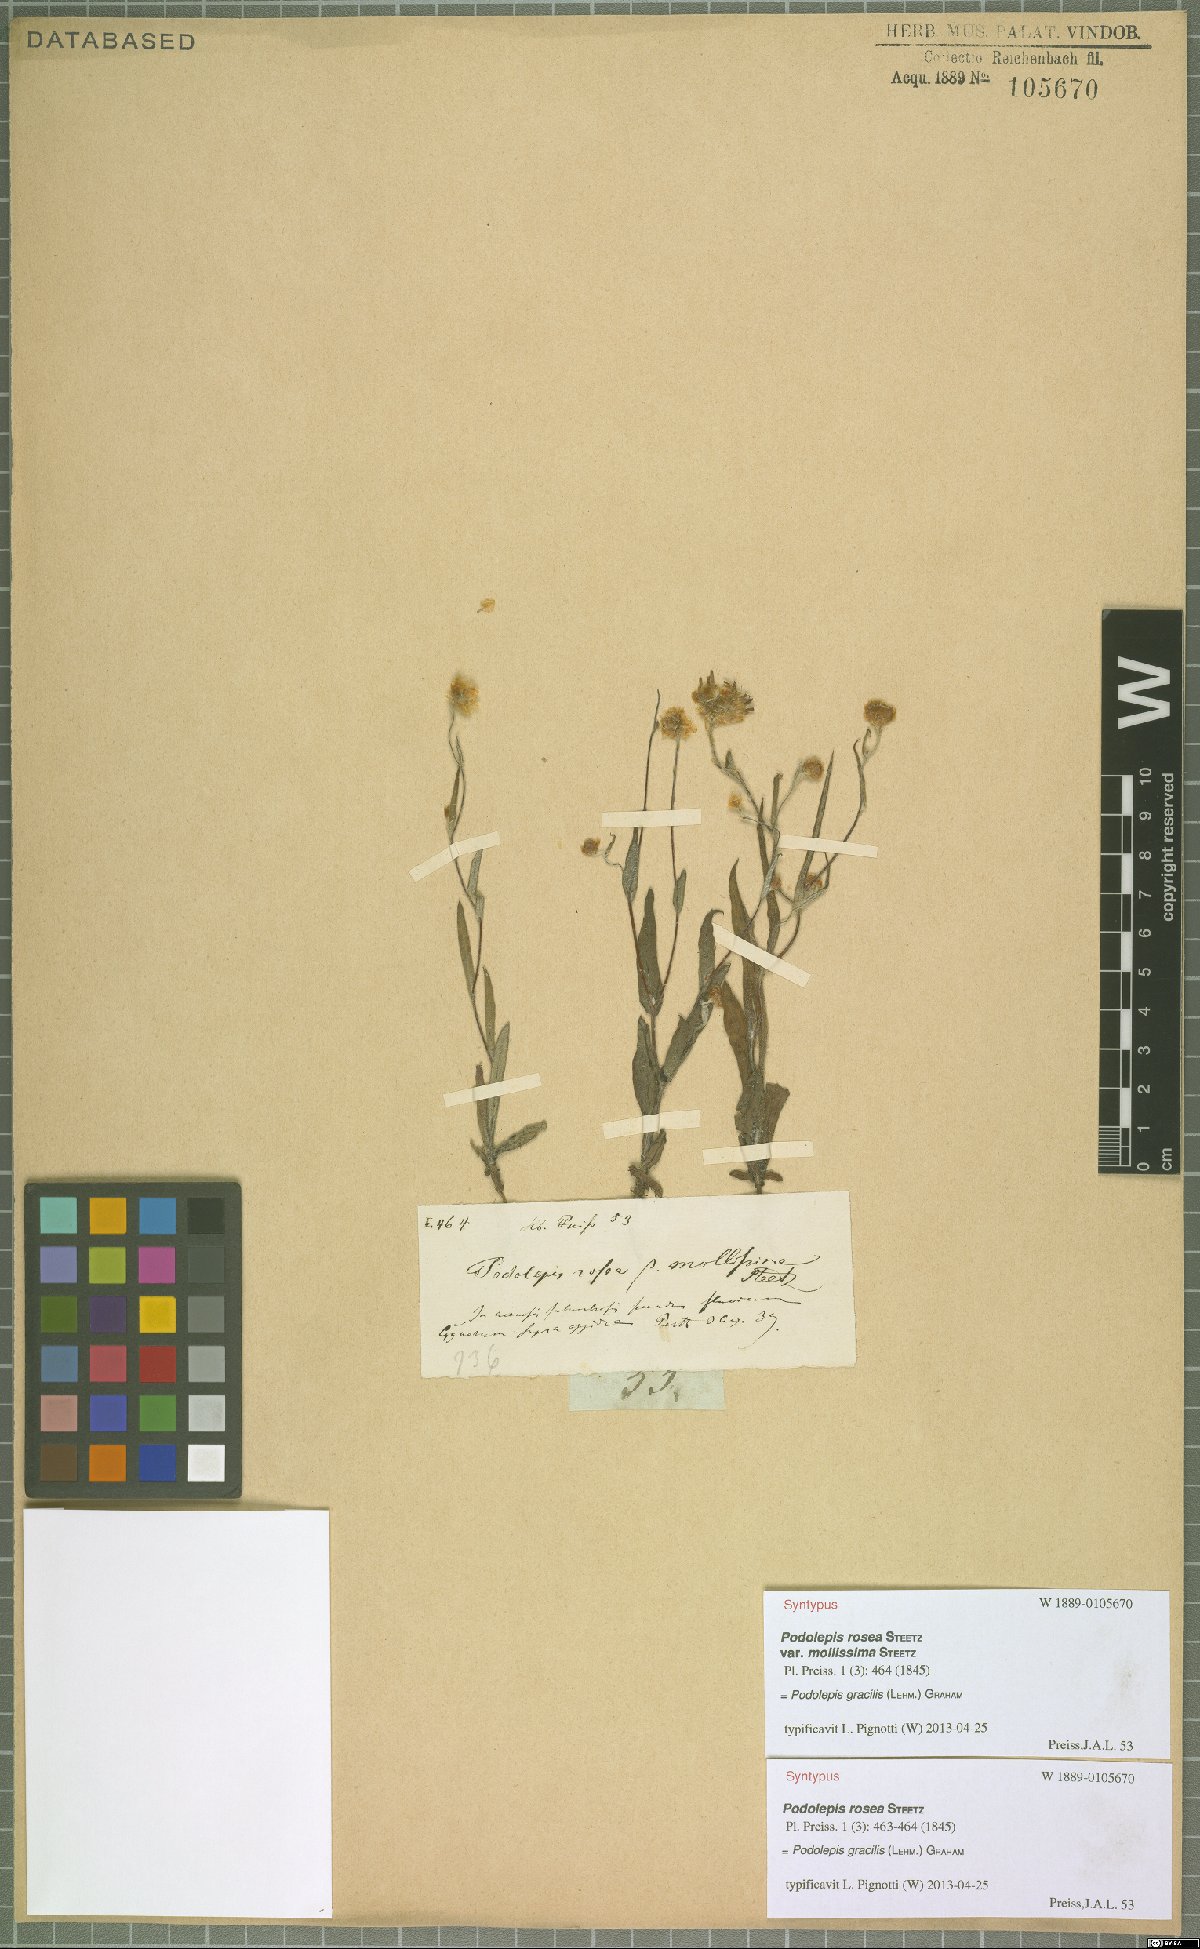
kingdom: Plantae
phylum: Tracheophyta
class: Magnoliopsida
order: Asterales
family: Asteraceae
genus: Podolepis
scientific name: Podolepis gracilis
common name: Slender podolepis
